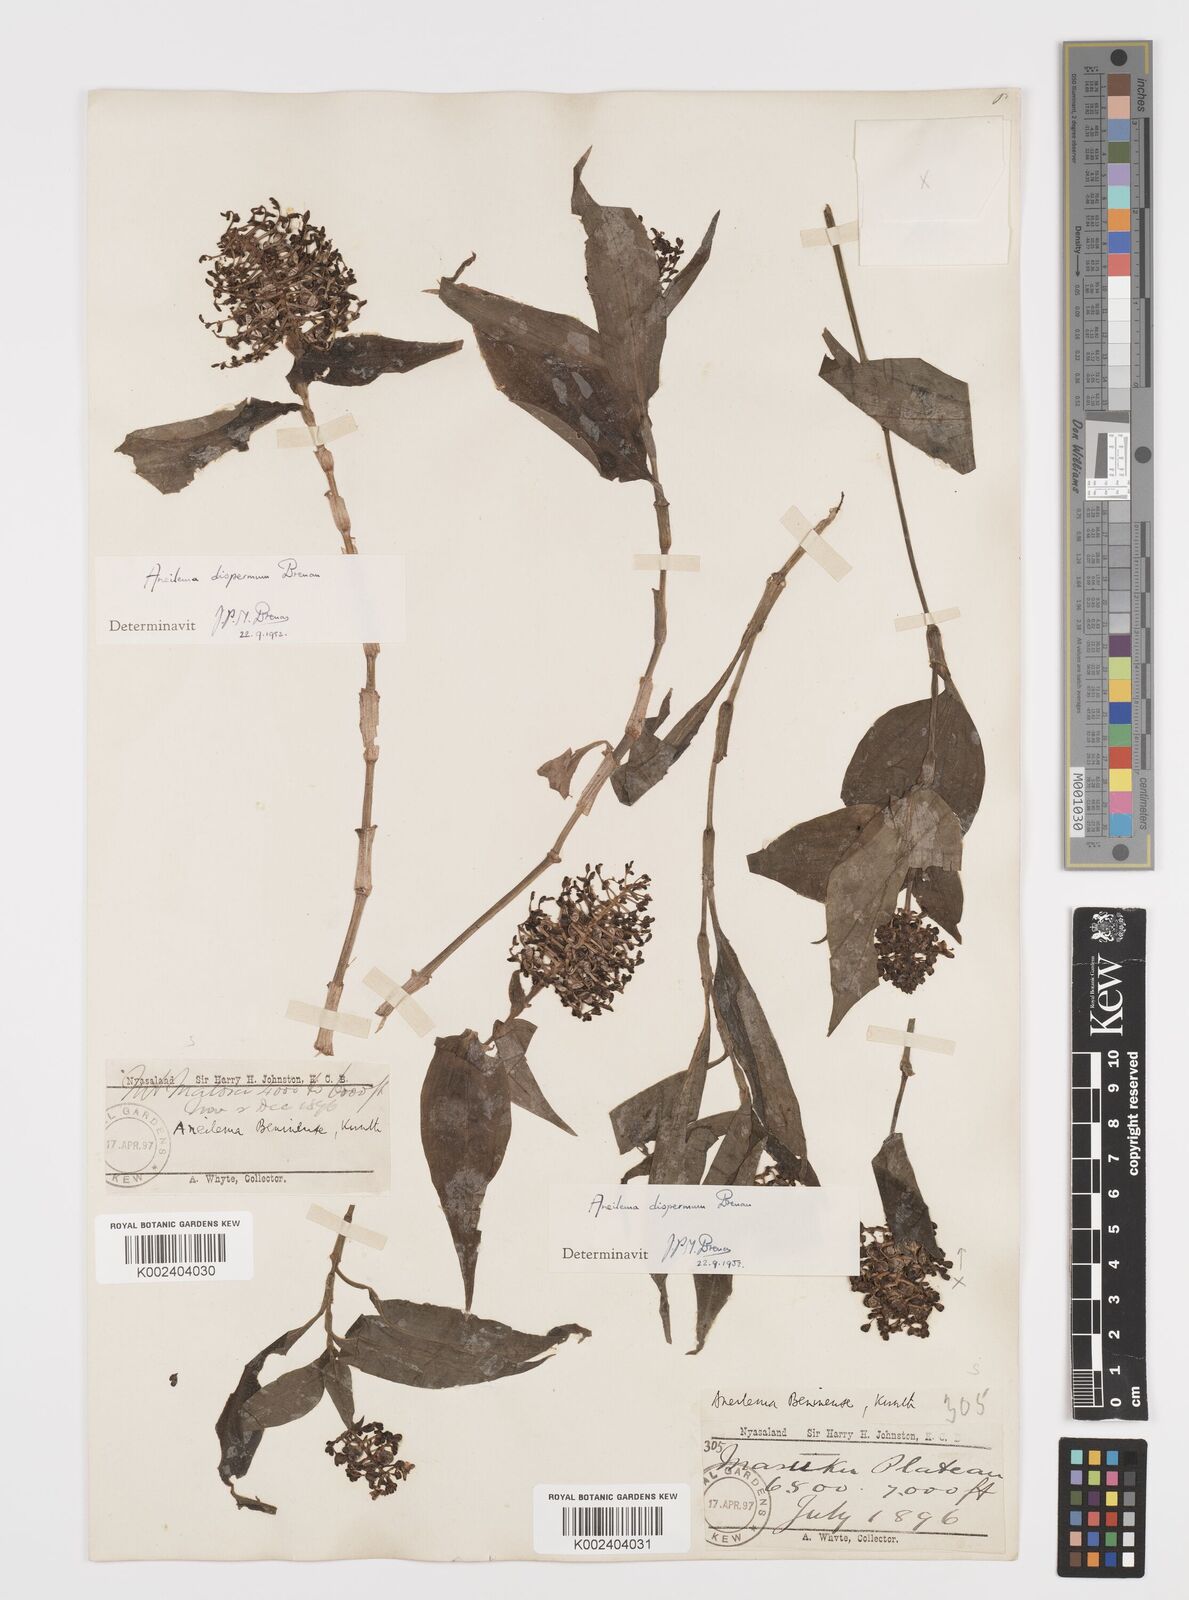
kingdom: Plantae
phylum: Tracheophyta
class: Liliopsida
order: Commelinales
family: Commelinaceae
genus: Aneilema
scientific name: Aneilema dispermum
